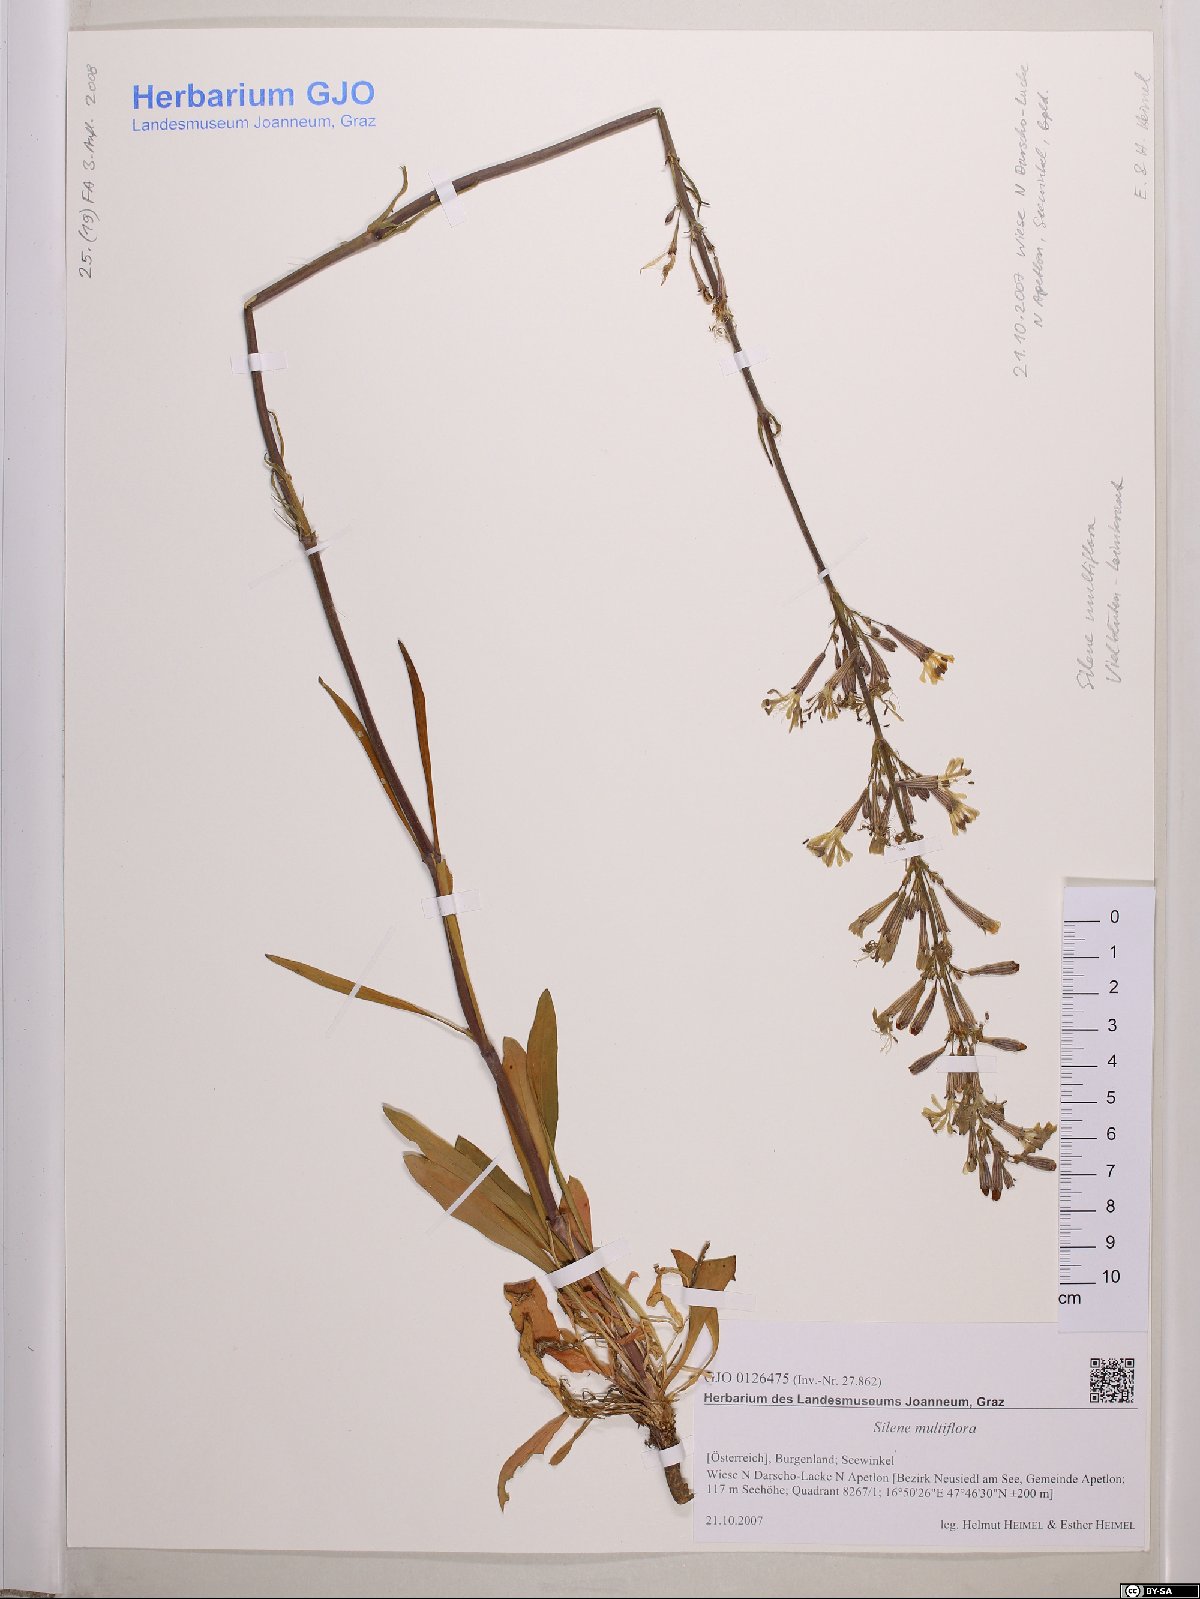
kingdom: Plantae
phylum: Tracheophyta
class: Magnoliopsida
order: Caryophyllales
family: Caryophyllaceae
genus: Silene
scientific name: Silene multiflora
